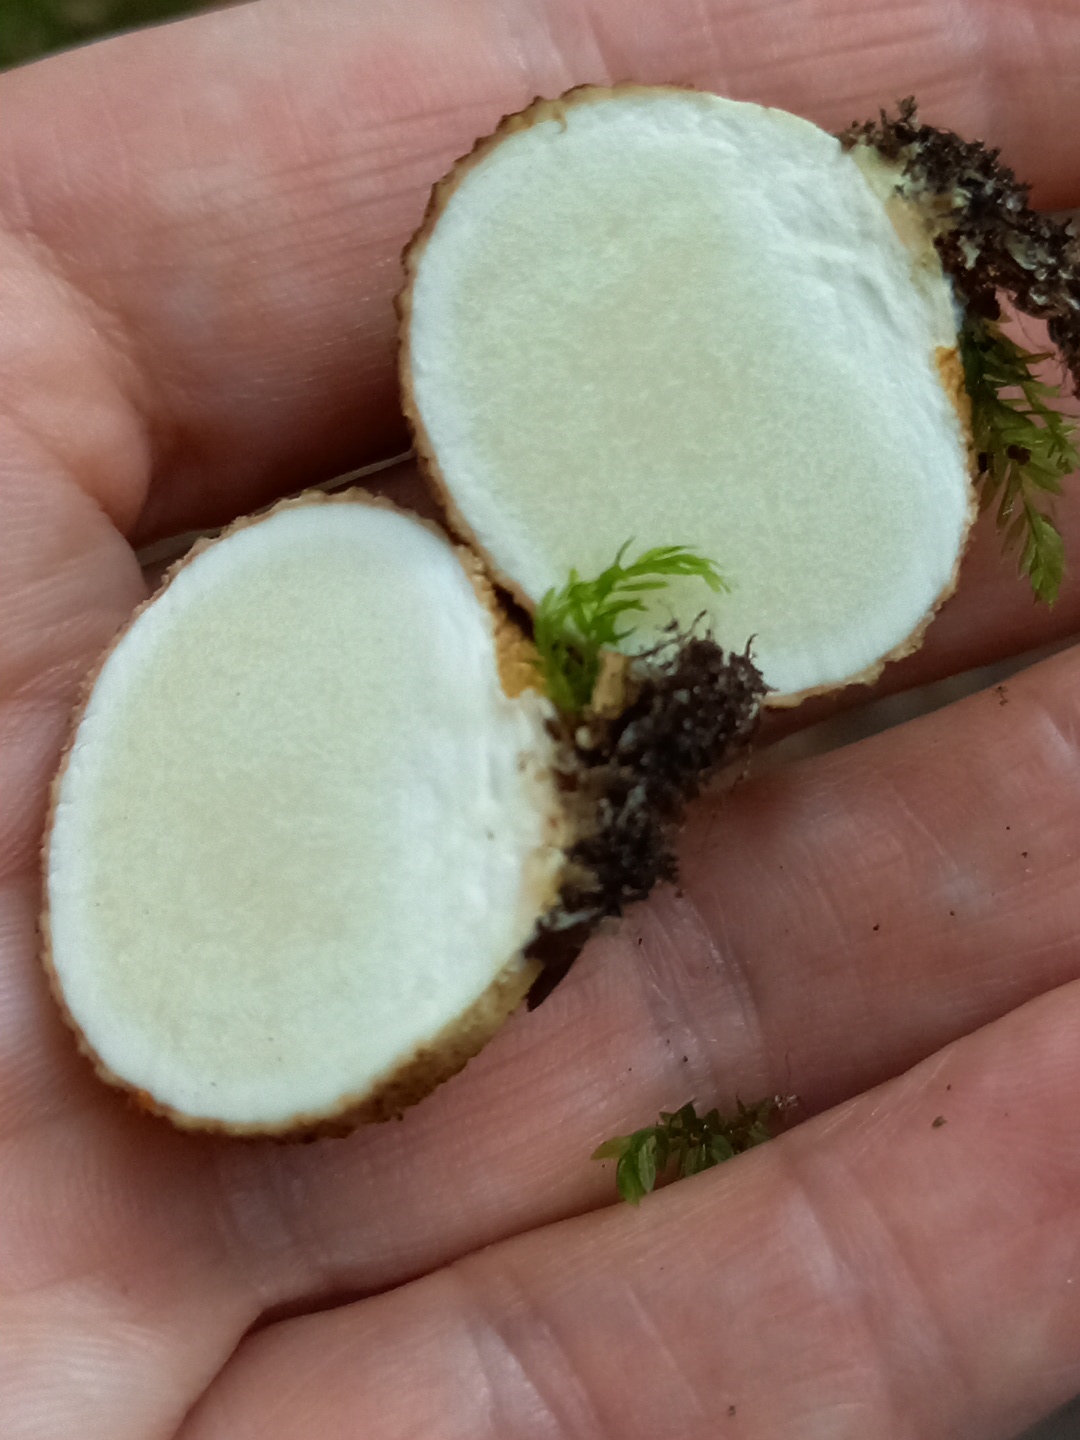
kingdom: Fungi
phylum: Basidiomycota
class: Agaricomycetes
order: Boletales
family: Sclerodermataceae
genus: Scleroderma
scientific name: Scleroderma citrinum
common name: almindelig bruskbold
